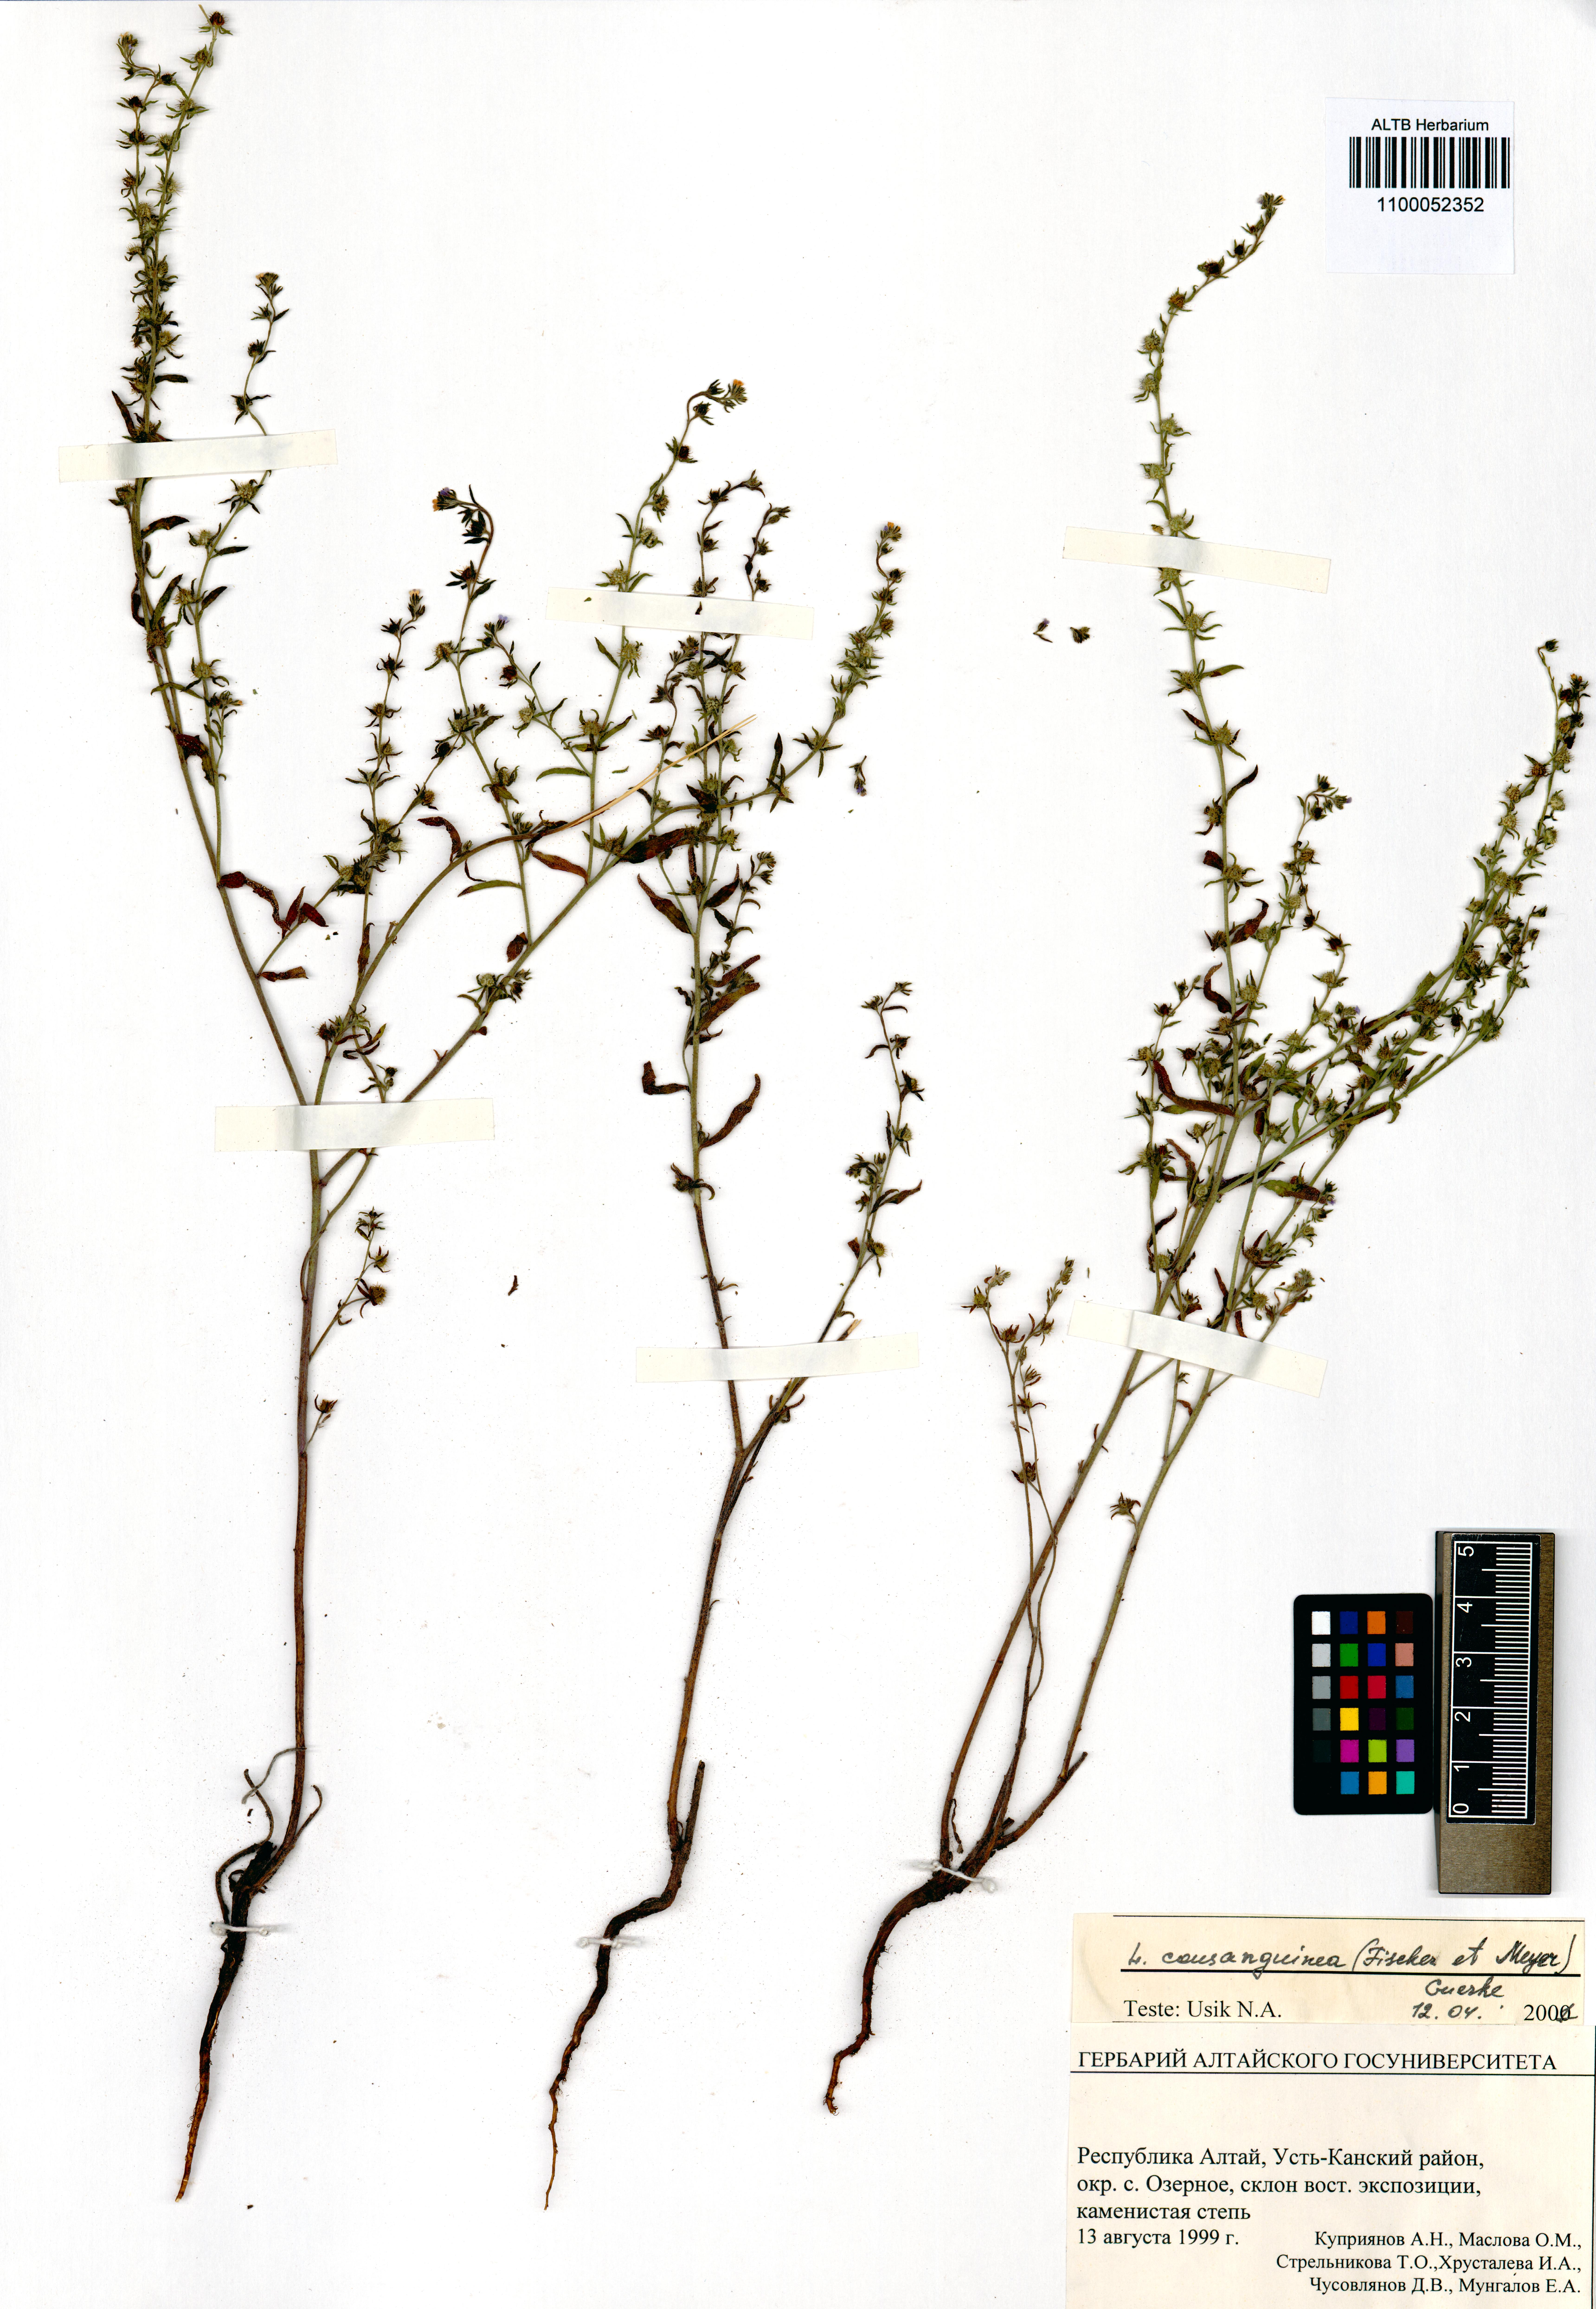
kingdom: Plantae
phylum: Tracheophyta
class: Magnoliopsida
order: Boraginales
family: Boraginaceae
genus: Lappula
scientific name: Lappula squarrosa
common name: European stickseed
